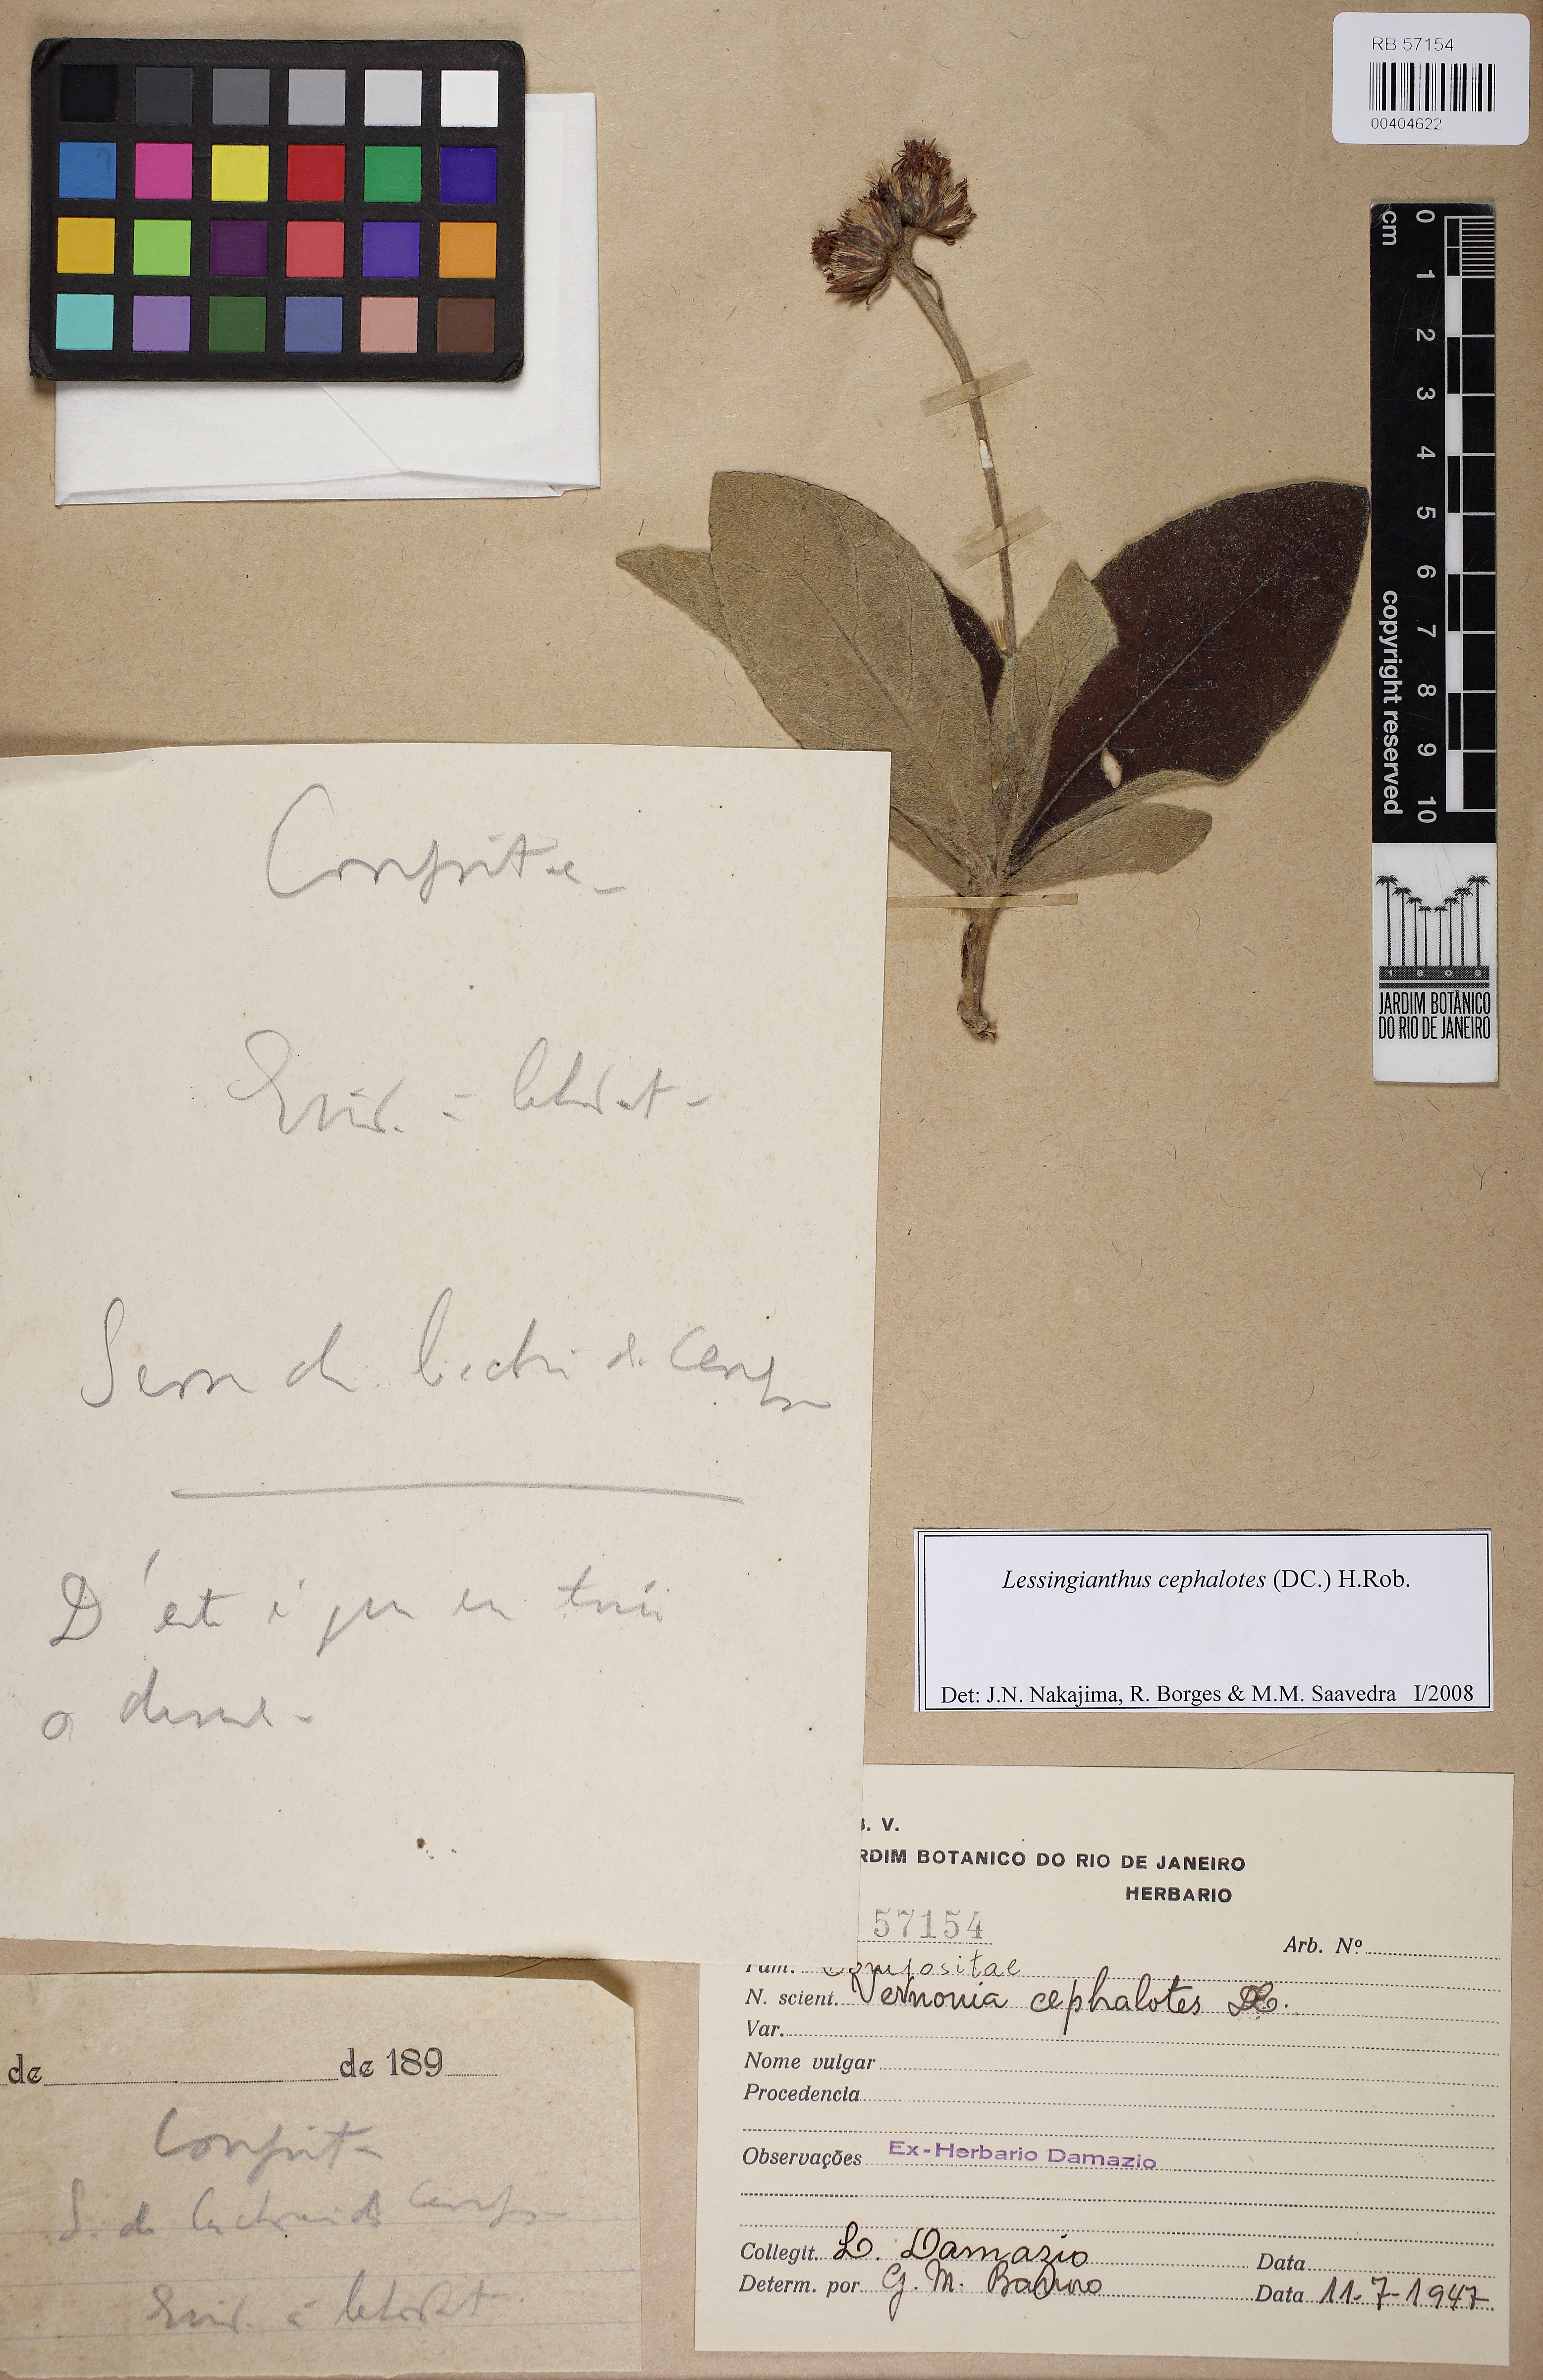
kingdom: Plantae
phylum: Tracheophyta
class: Magnoliopsida
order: Asterales
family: Asteraceae
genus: Lessingianthus
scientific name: Lessingianthus cephalotes
